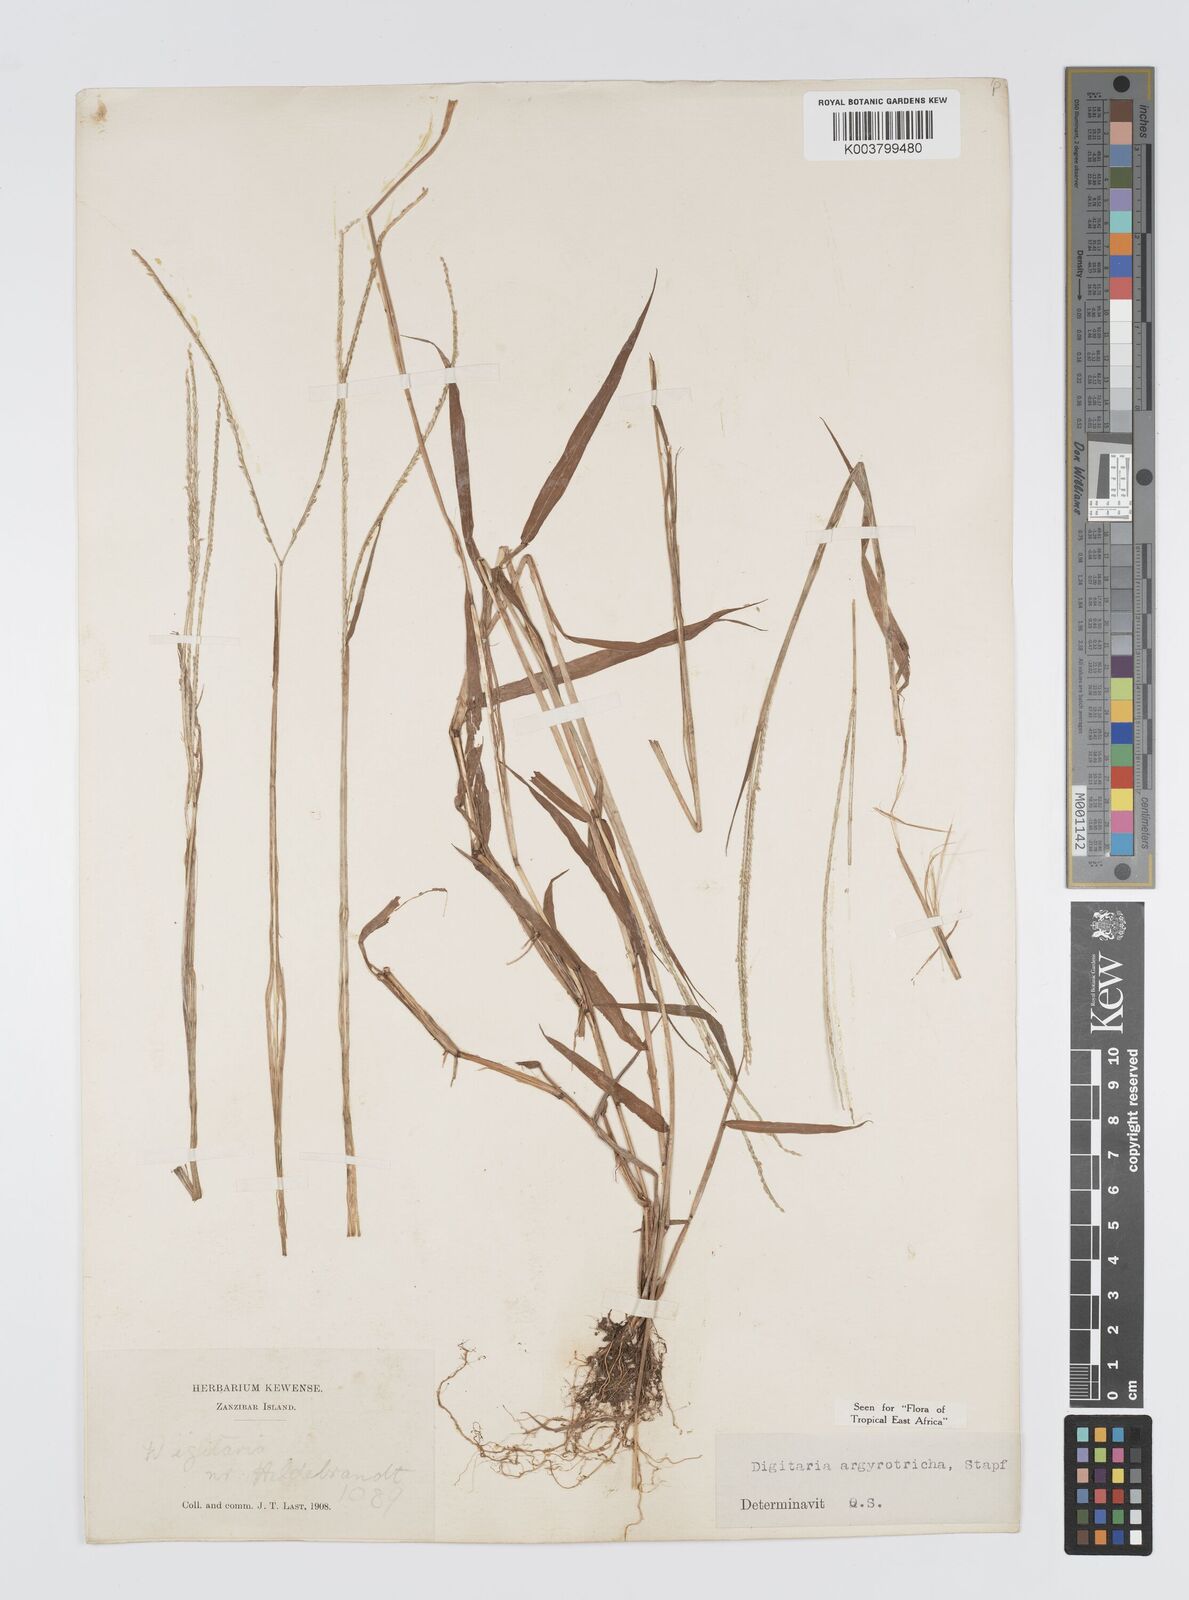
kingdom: Plantae
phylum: Tracheophyta
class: Liliopsida
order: Poales
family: Poaceae
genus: Digitaria
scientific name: Digitaria argyrotricha
